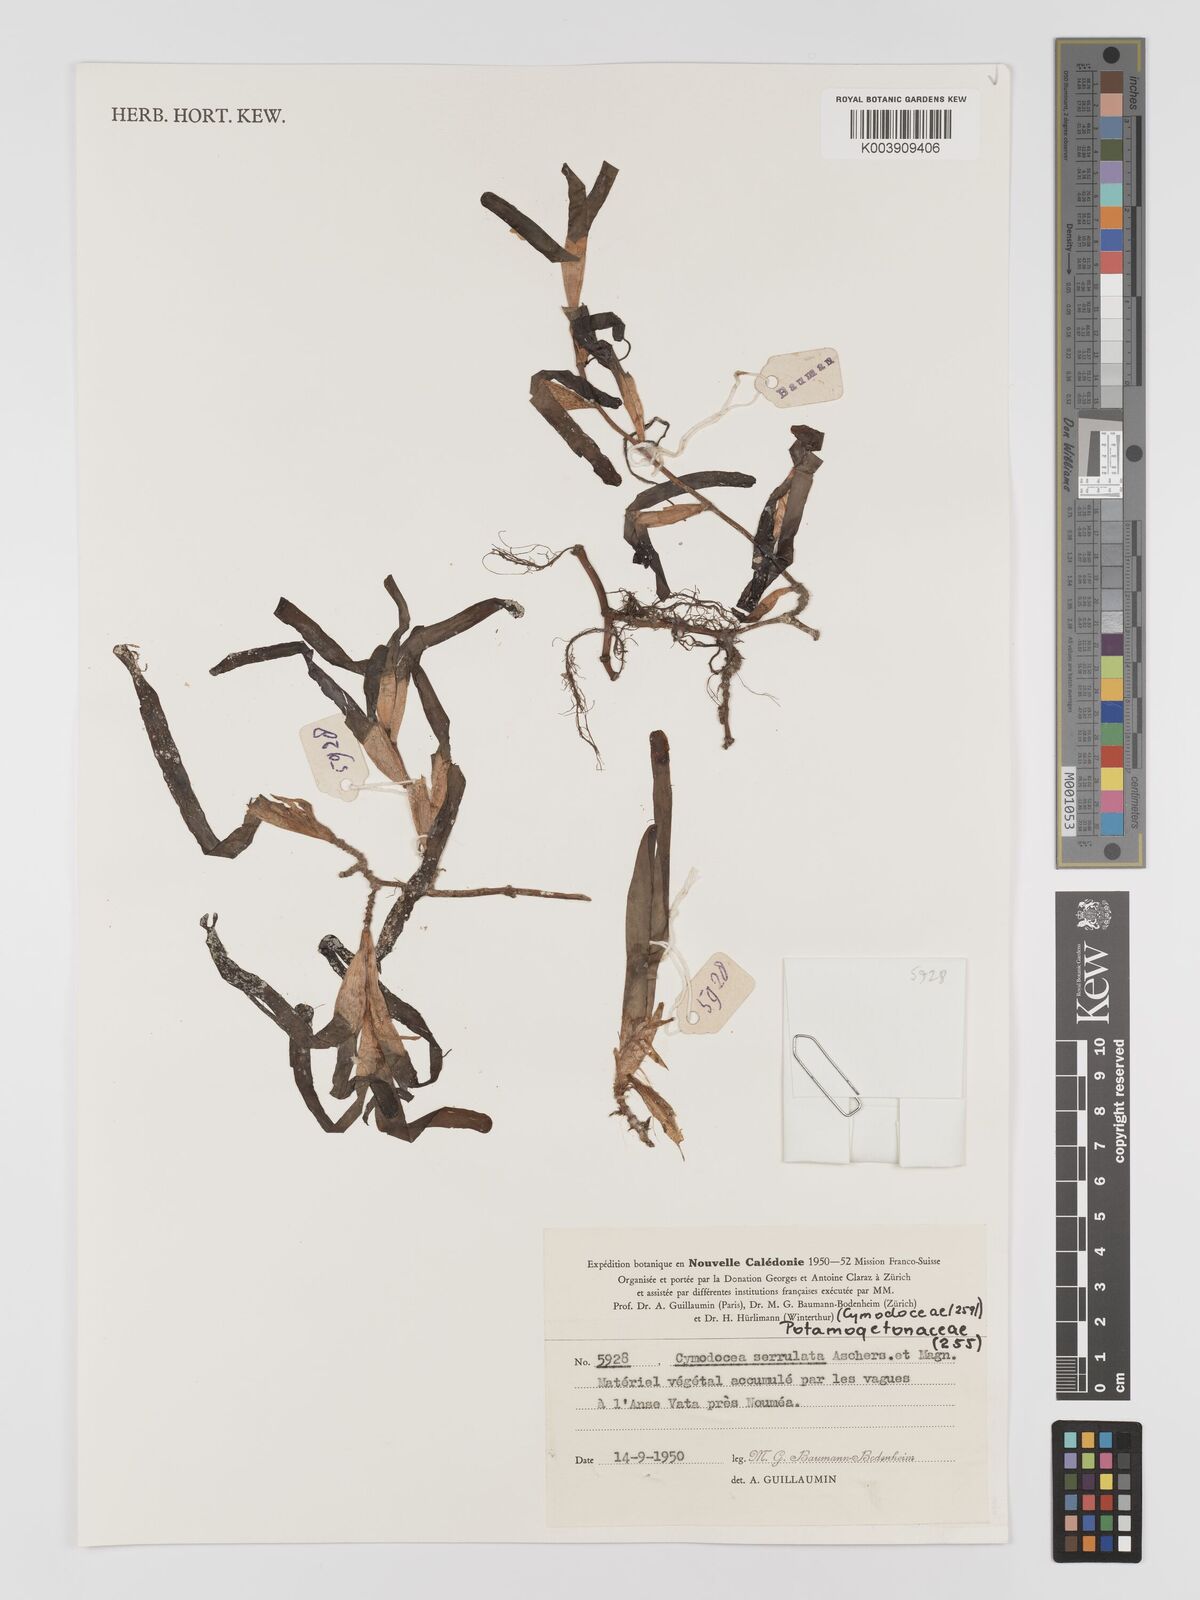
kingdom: Plantae
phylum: Tracheophyta
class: Liliopsida
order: Alismatales
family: Cymodoceaceae
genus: Oceana
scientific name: Oceana serrulata
